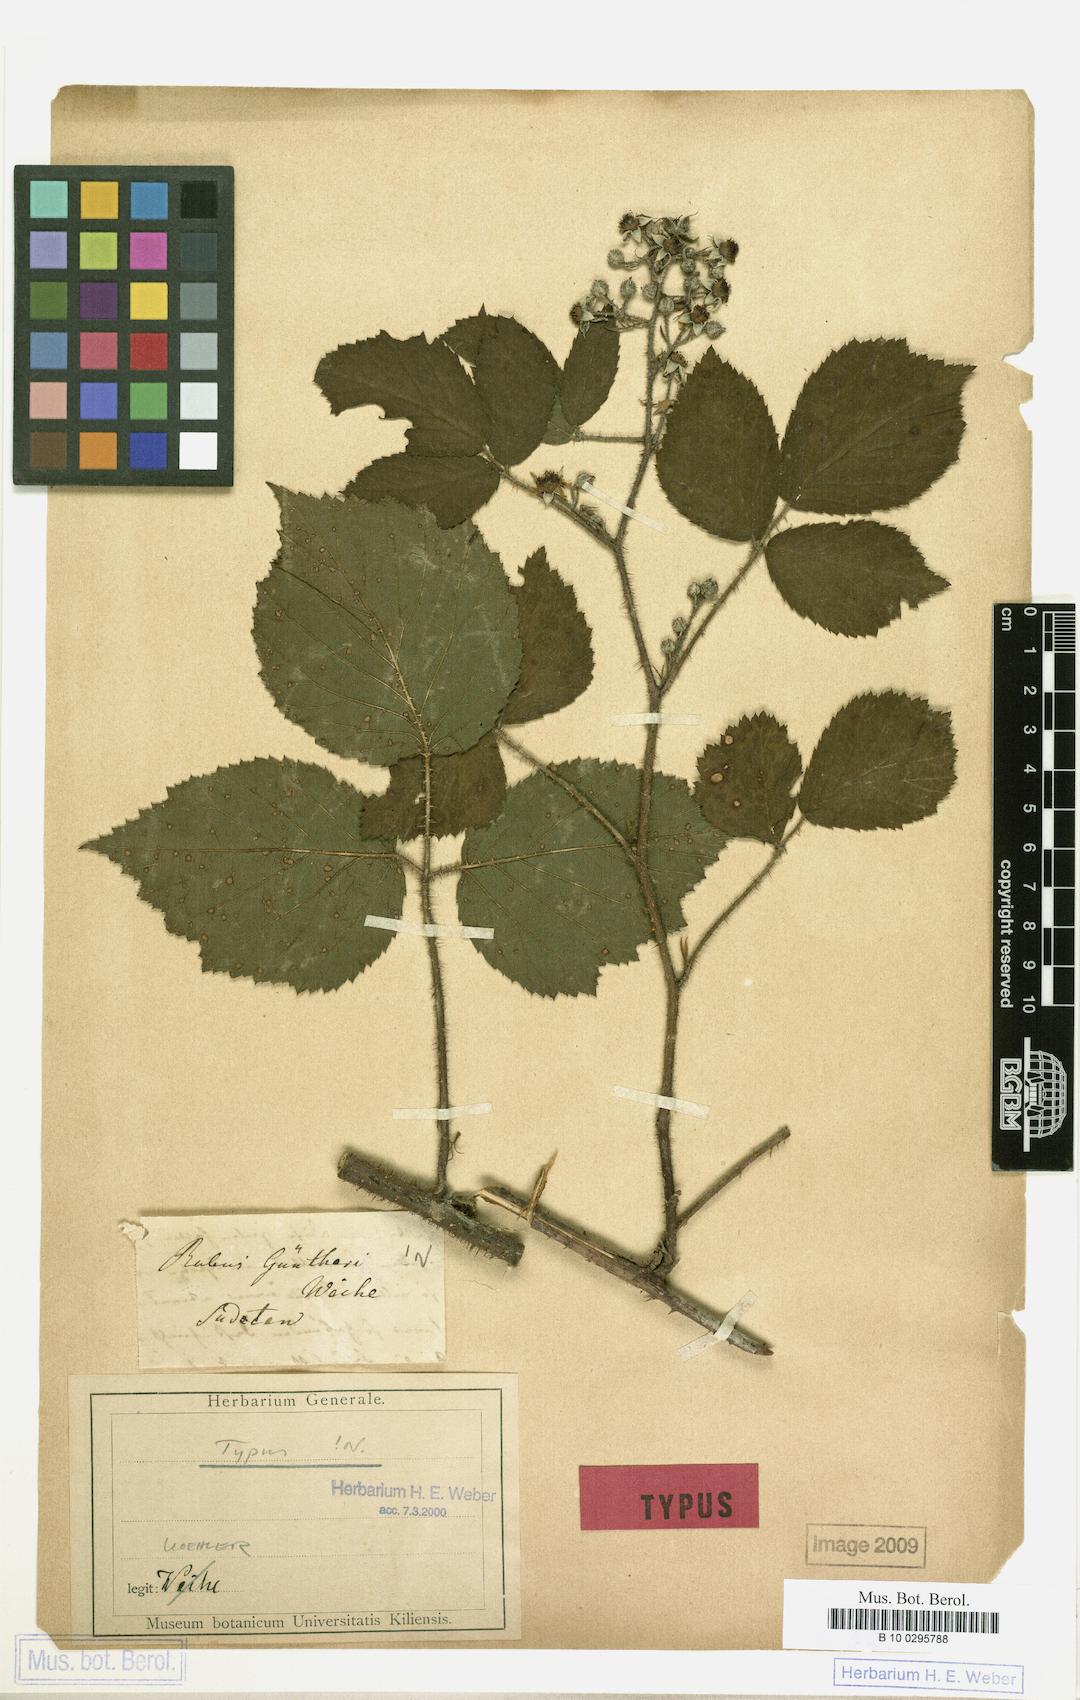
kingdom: Plantae
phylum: Tracheophyta
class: Magnoliopsida
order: Rosales
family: Rosaceae
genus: Rubus
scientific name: Rubus guentheri
